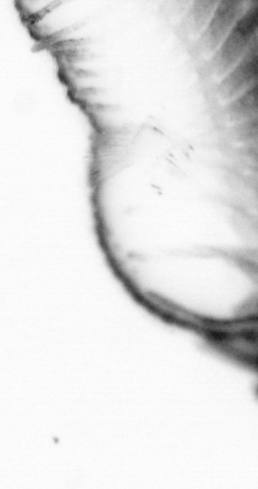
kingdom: Animalia
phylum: Annelida
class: Polychaeta
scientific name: Polychaeta
